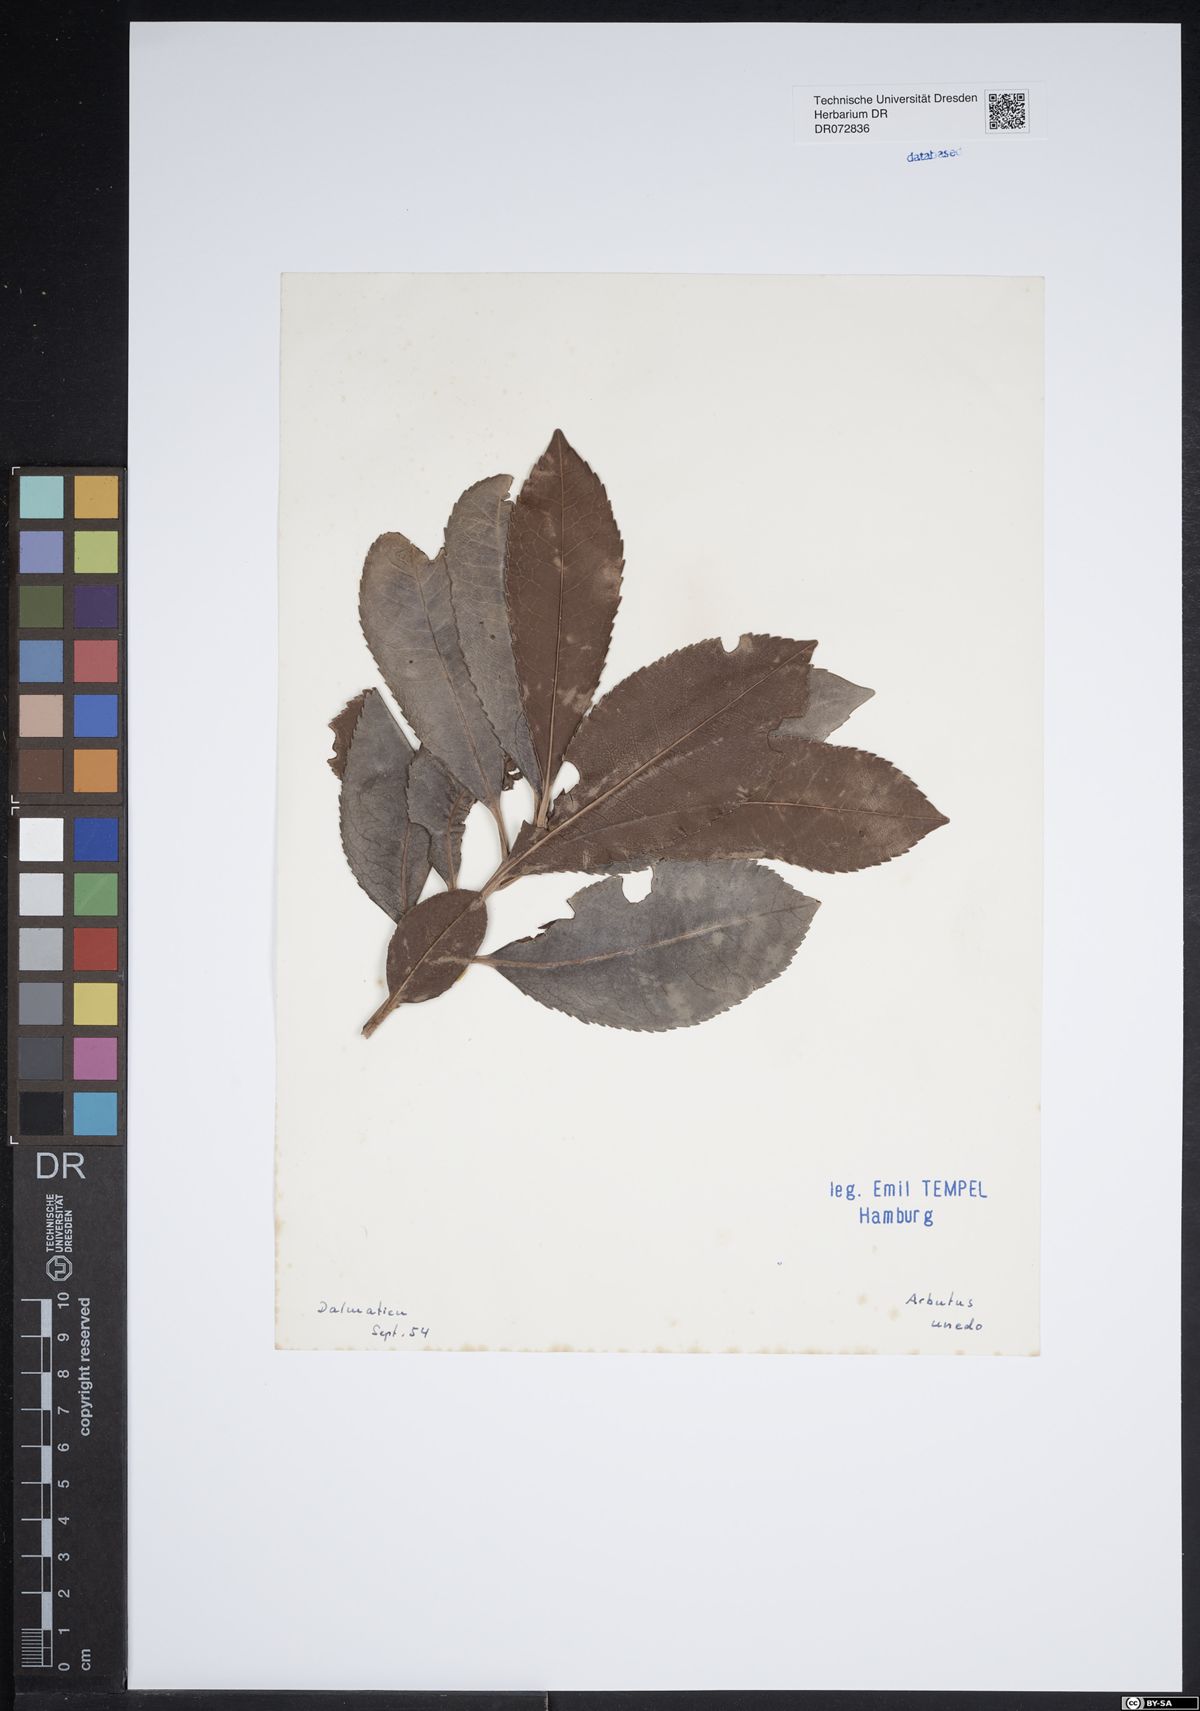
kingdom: Plantae
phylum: Tracheophyta
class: Magnoliopsida
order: Ericales
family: Ericaceae
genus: Arbutus
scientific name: Arbutus unedo
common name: Strawberry-tree
